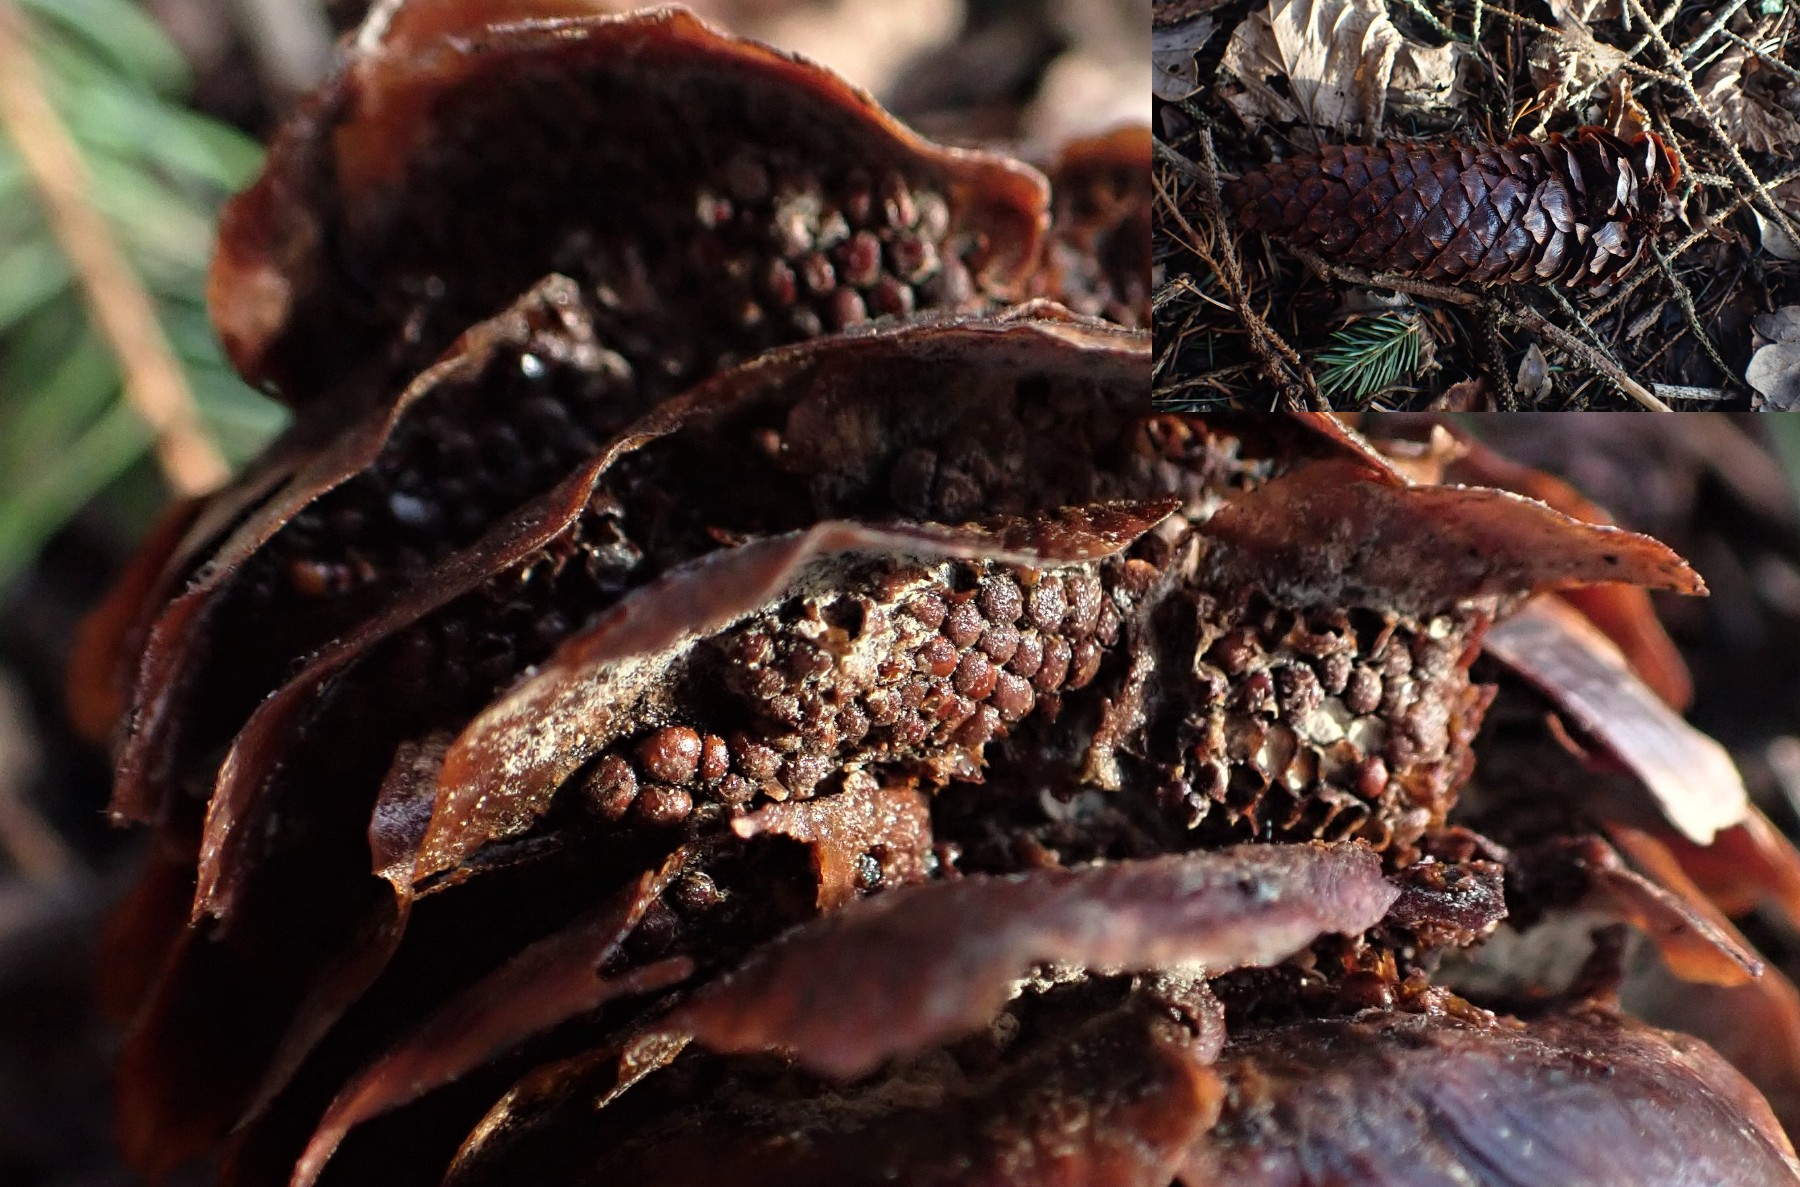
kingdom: Fungi
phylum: Basidiomycota
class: Pucciniomycetes
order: Pucciniales
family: Pucciniastraceae
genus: Thekopsora
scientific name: Thekopsora areolata
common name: grankogle-nålerust
